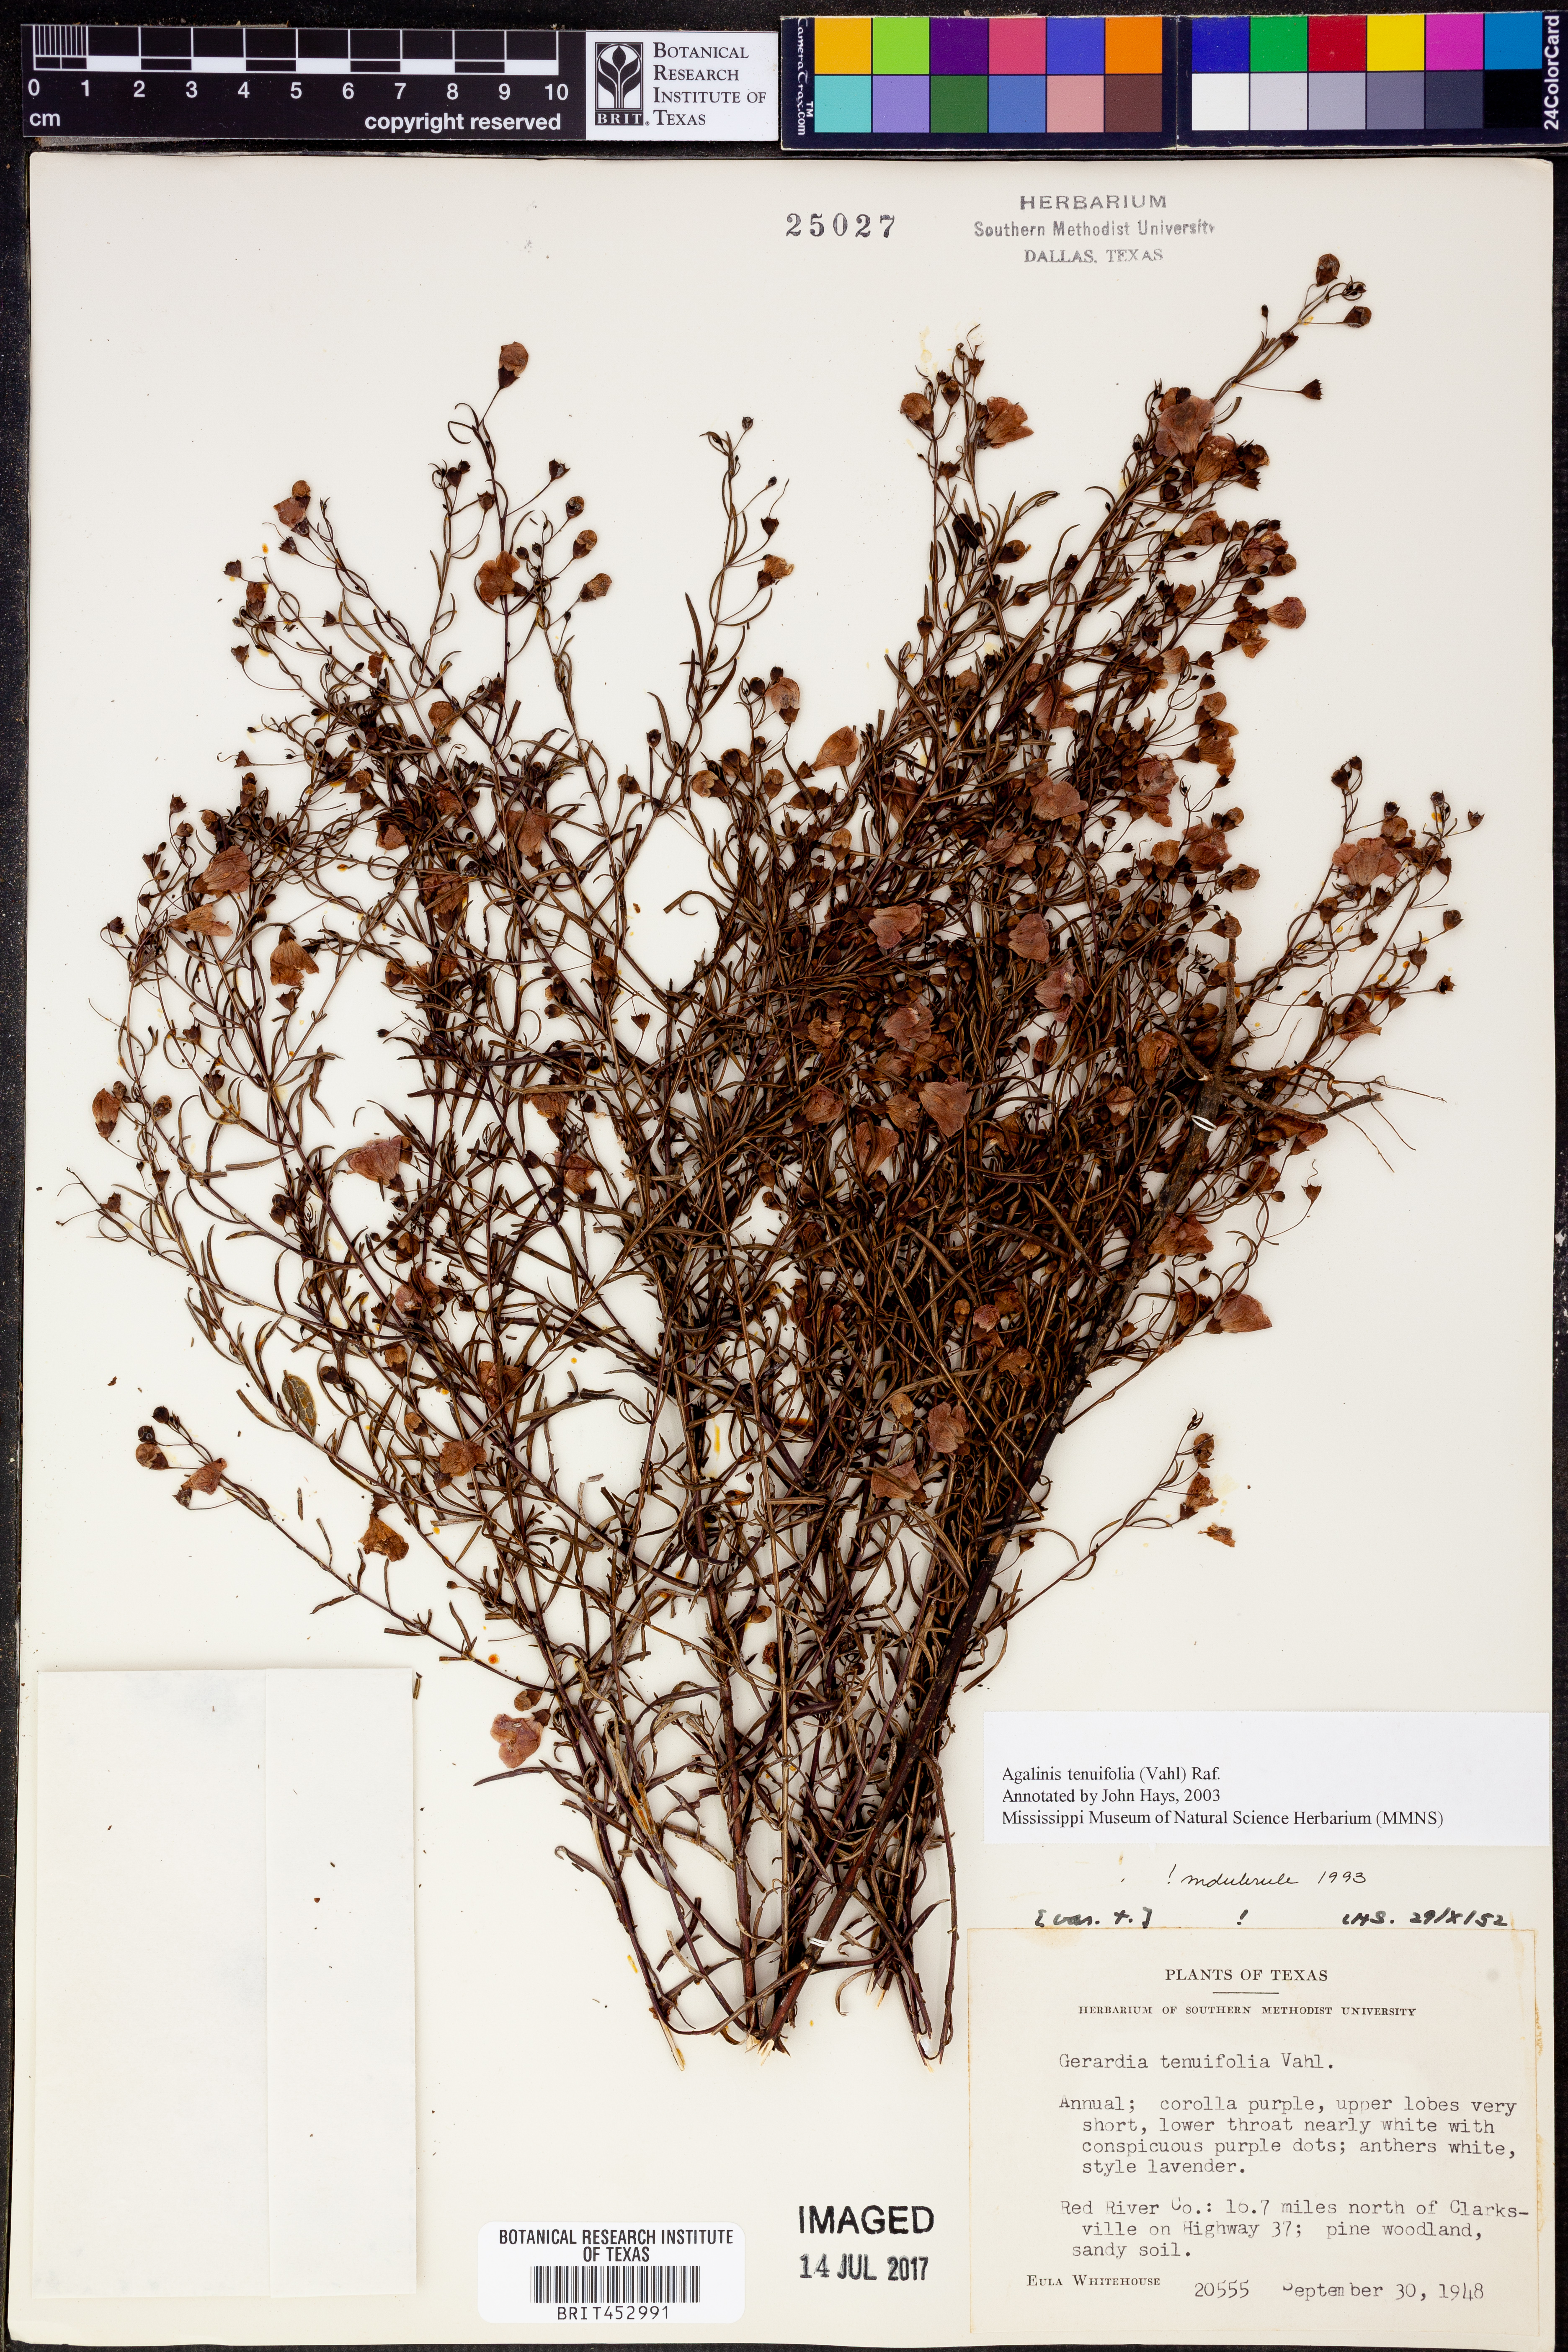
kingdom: Plantae
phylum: Tracheophyta
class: Magnoliopsida
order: Lamiales
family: Orobanchaceae
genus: Agalinis
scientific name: Agalinis tenuifolia
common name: Slender agalinis
